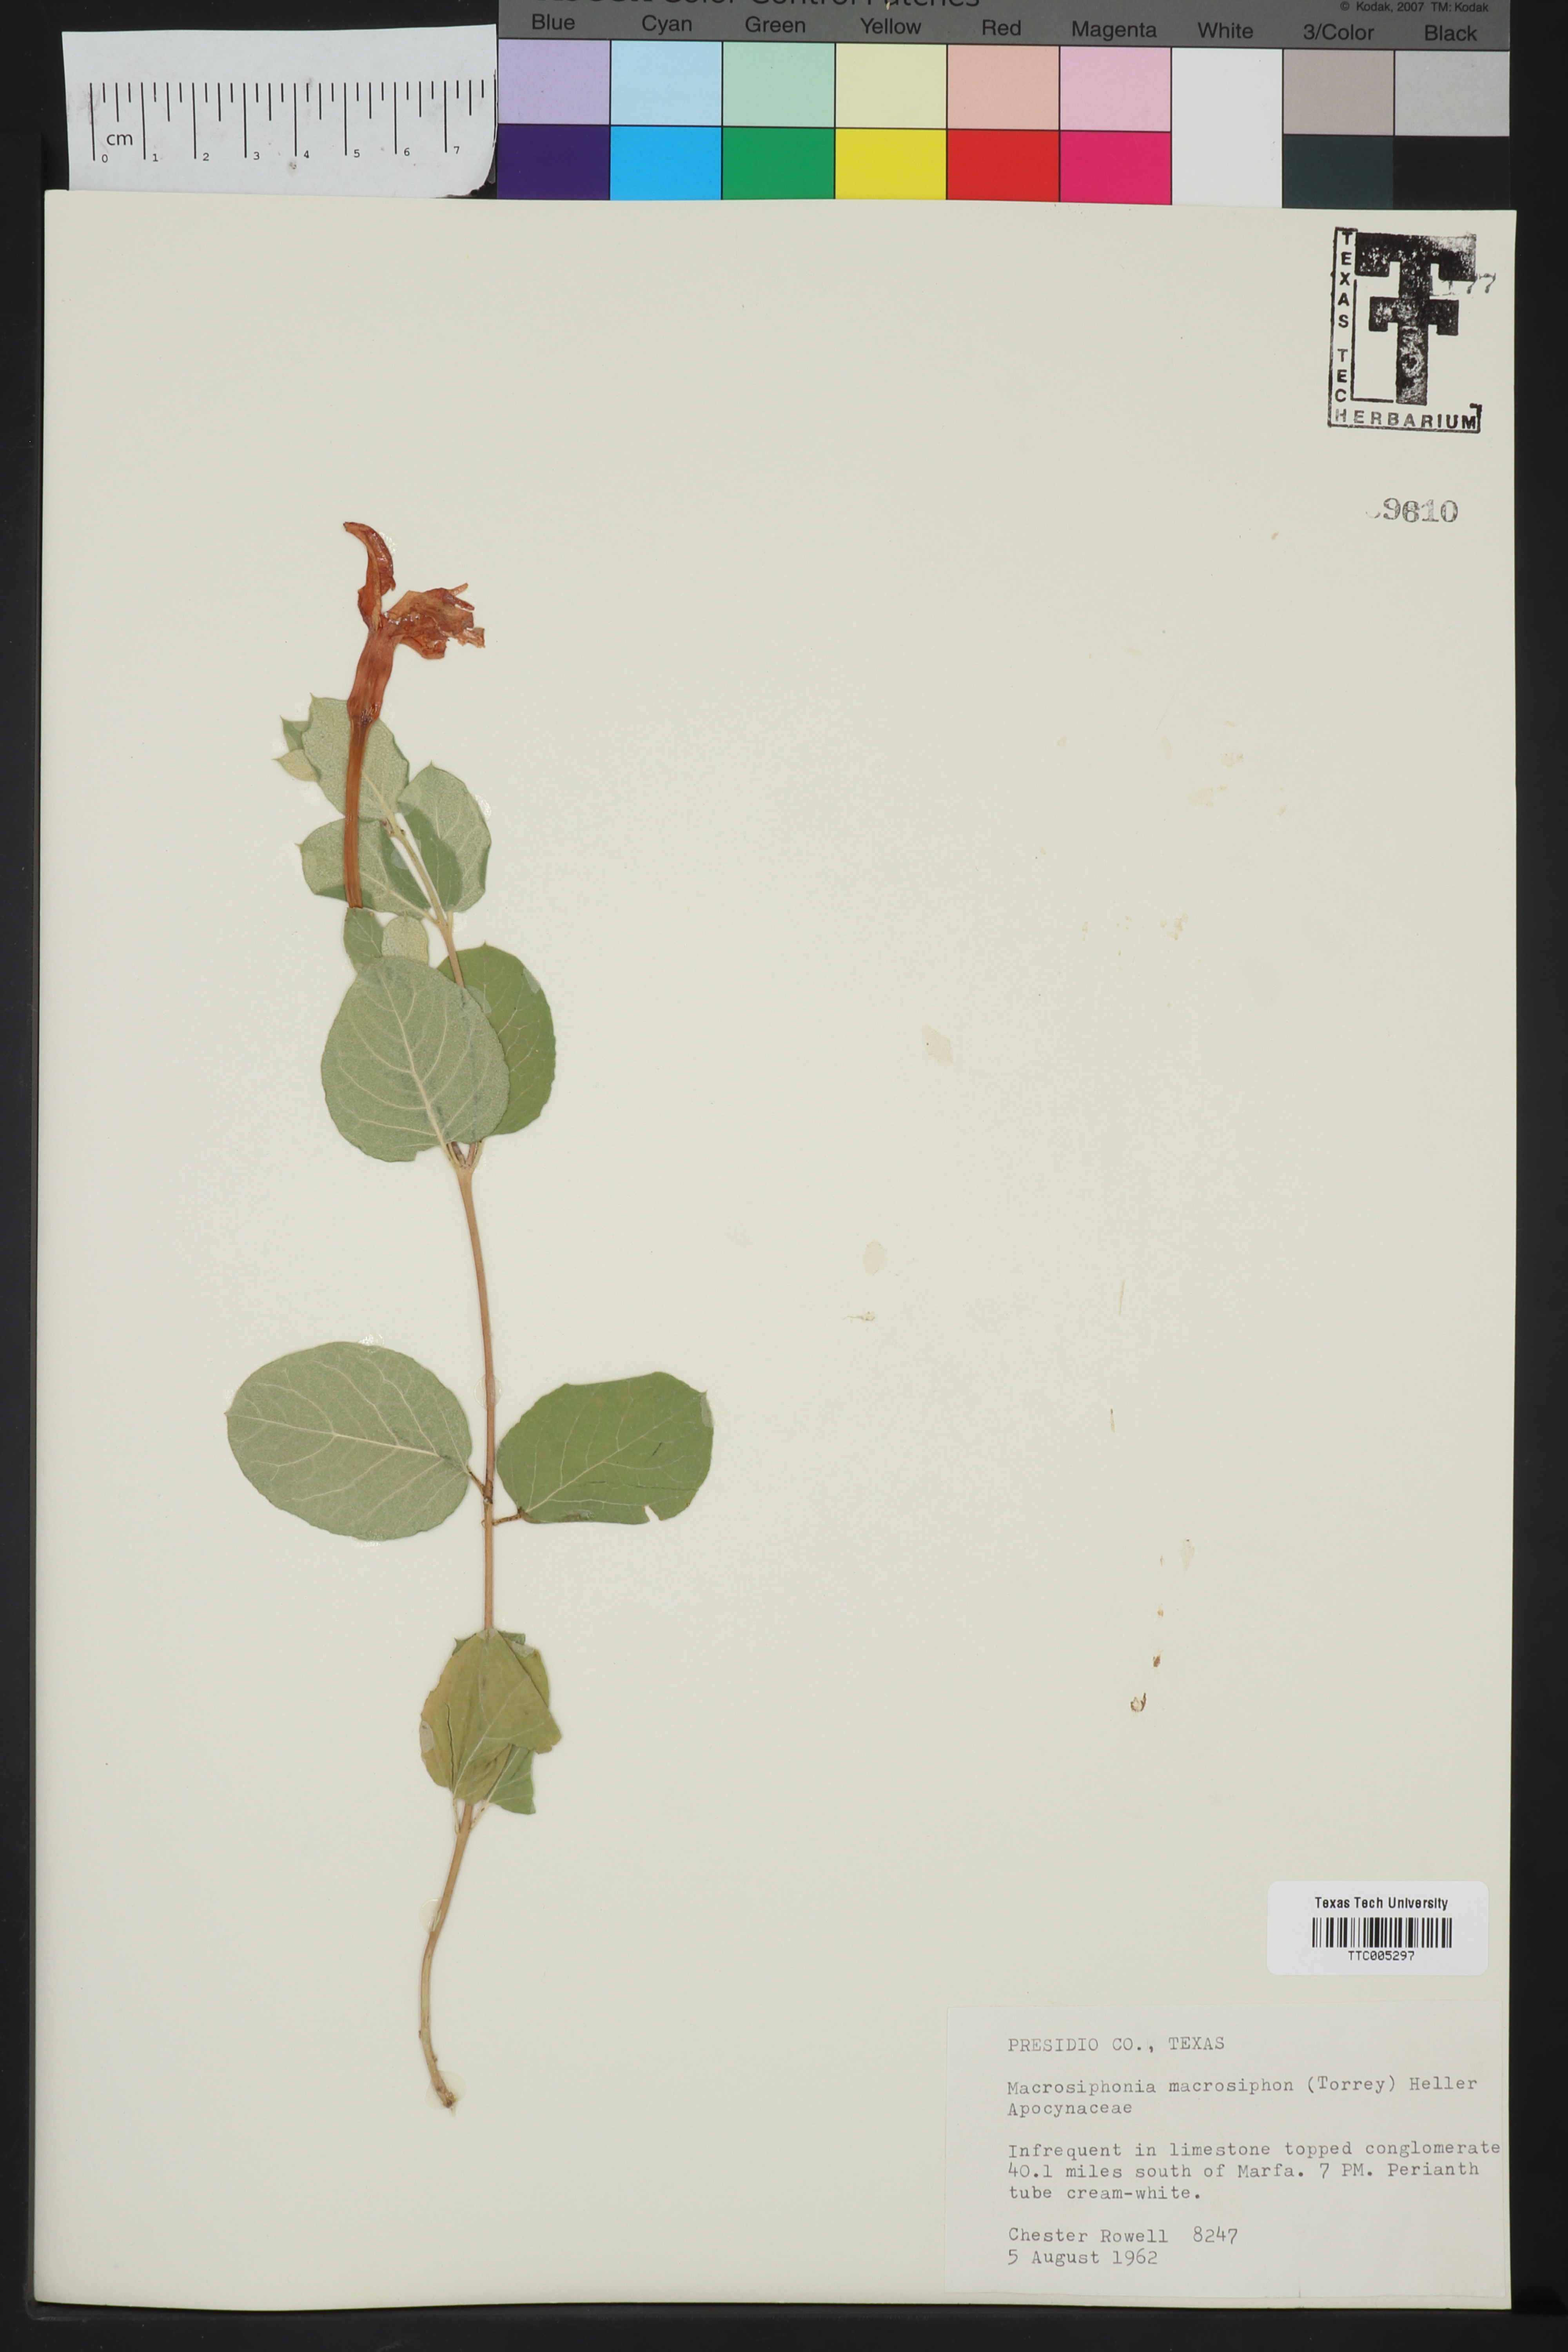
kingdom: Plantae
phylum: Tracheophyta
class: Magnoliopsida
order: Gentianales
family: Apocynaceae
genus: Mandevilla
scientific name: Mandevilla macrosiphon
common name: Plateau rocktrumpet
